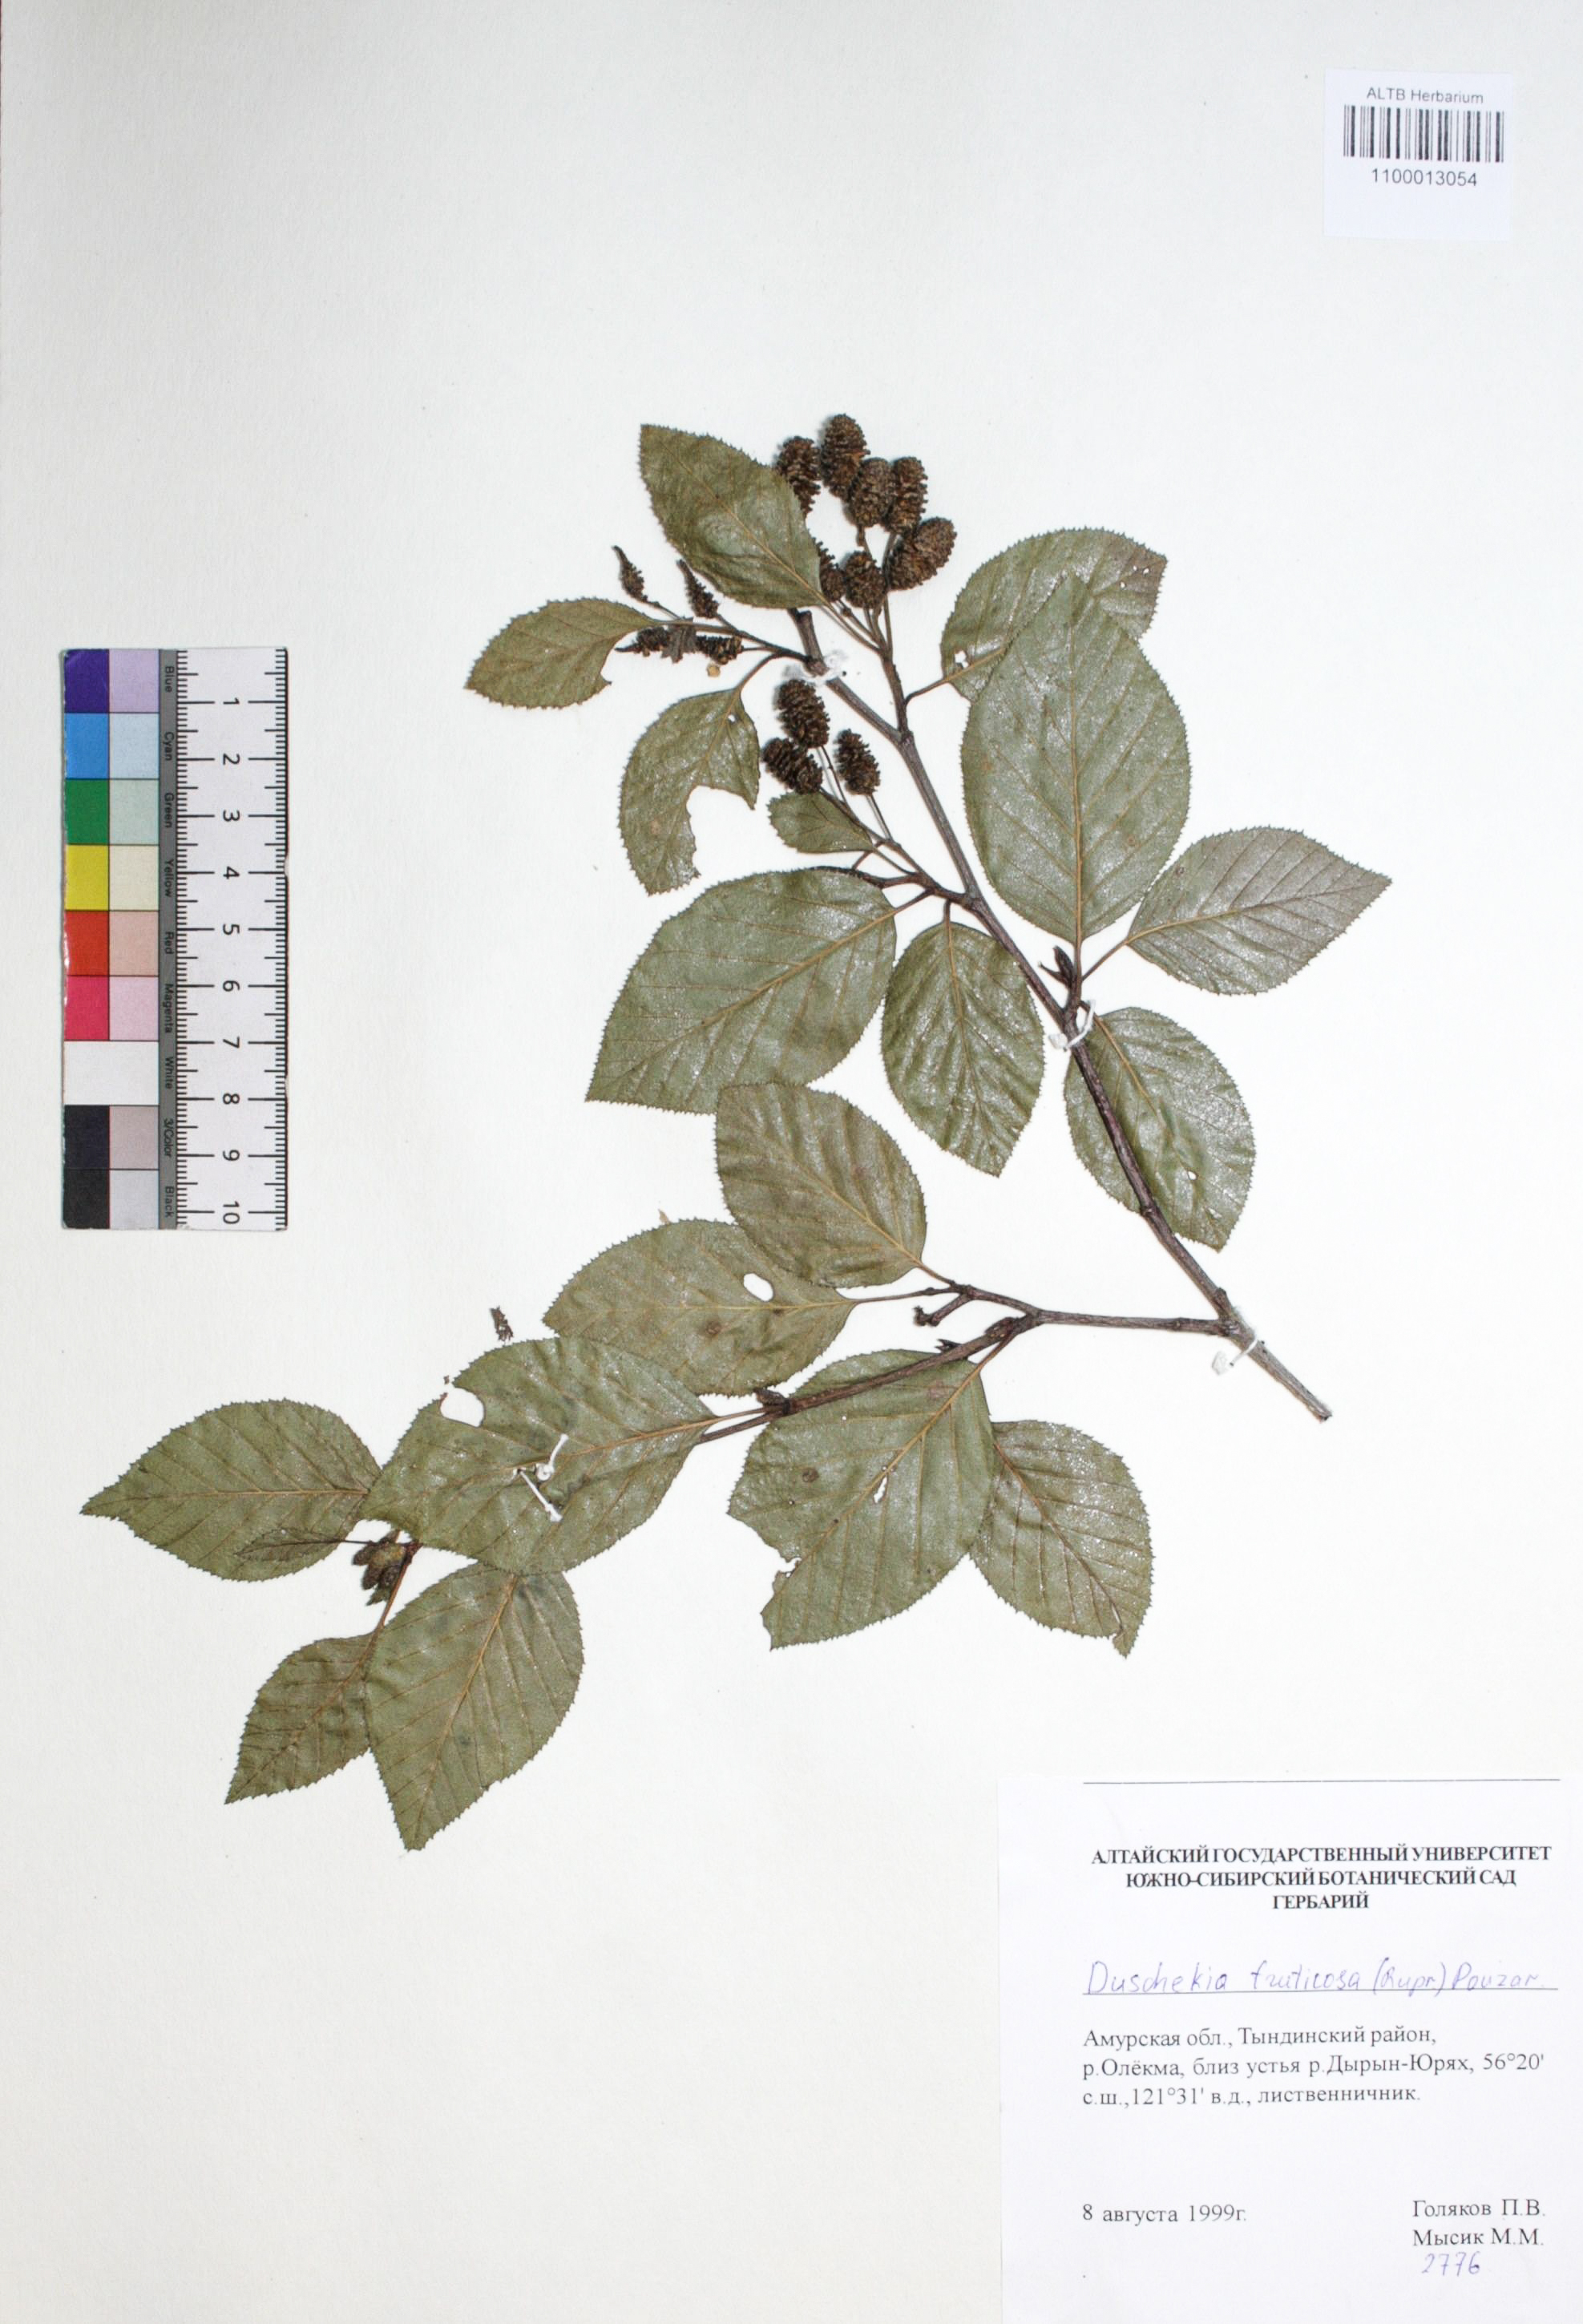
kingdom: Plantae
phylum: Tracheophyta
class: Magnoliopsida
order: Fagales
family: Betulaceae
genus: Alnus
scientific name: Alnus alnobetula
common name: Green alder
